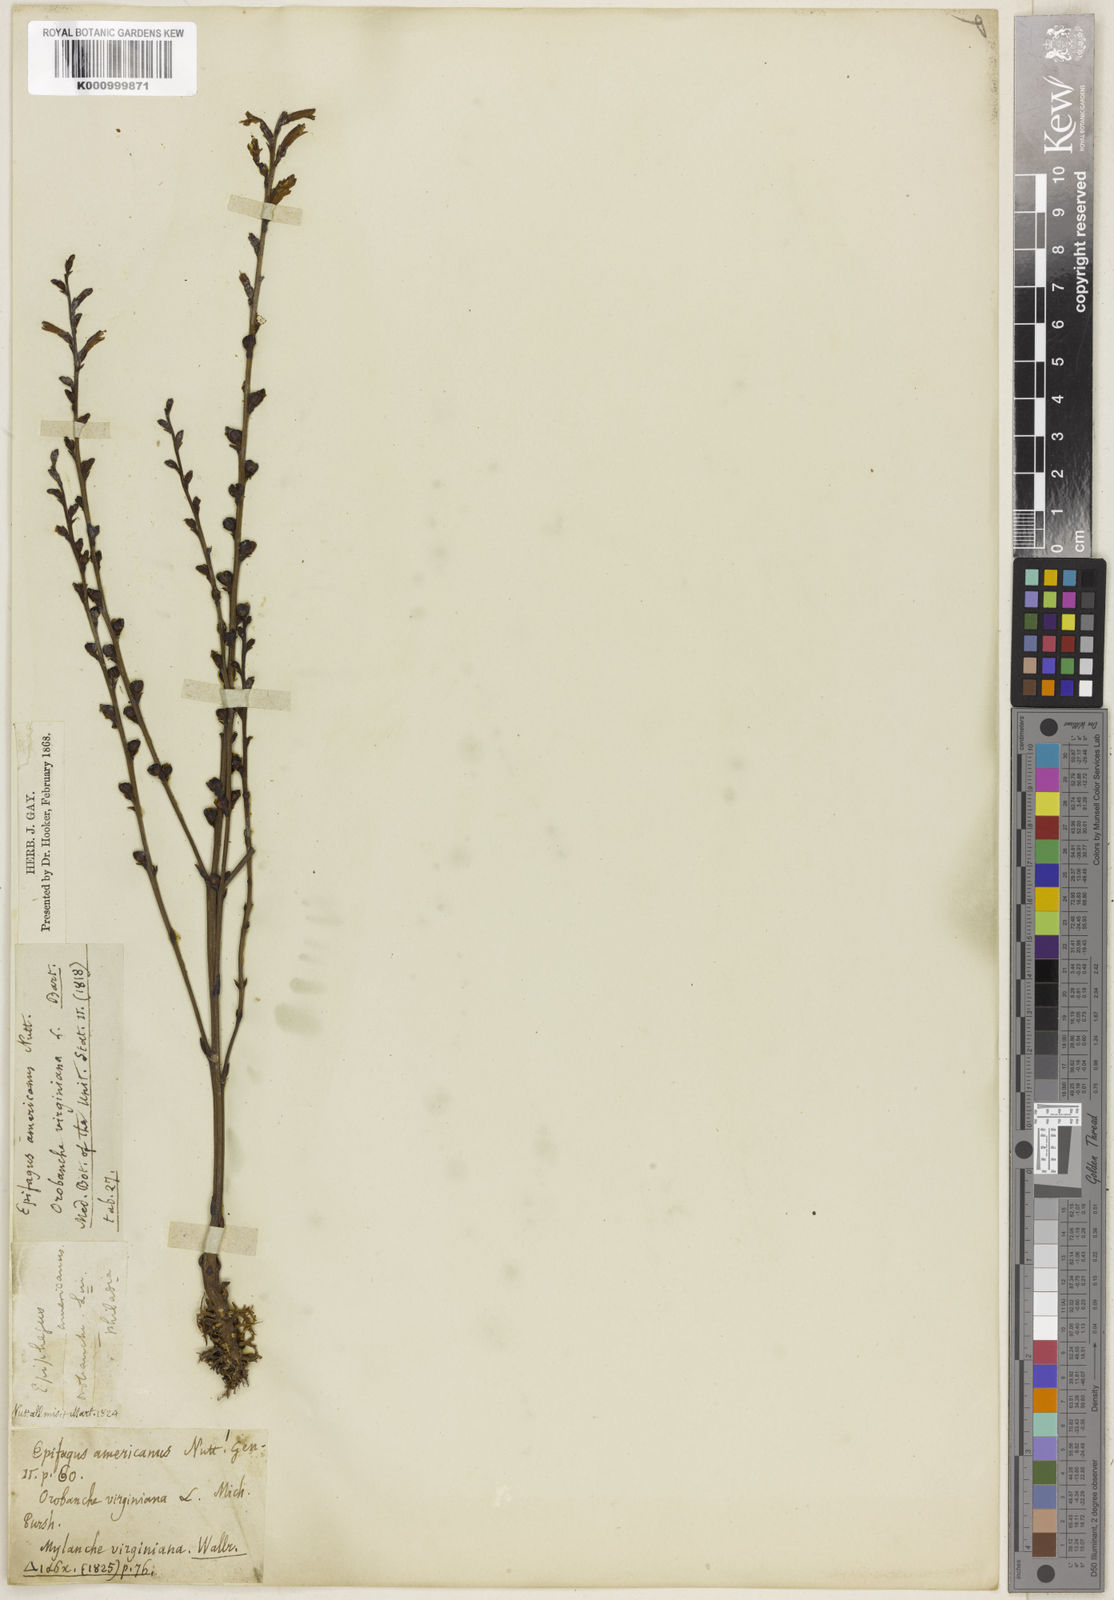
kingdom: Plantae
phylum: Tracheophyta
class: Magnoliopsida
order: Lamiales
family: Orobanchaceae
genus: Epifagus
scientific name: Epifagus
